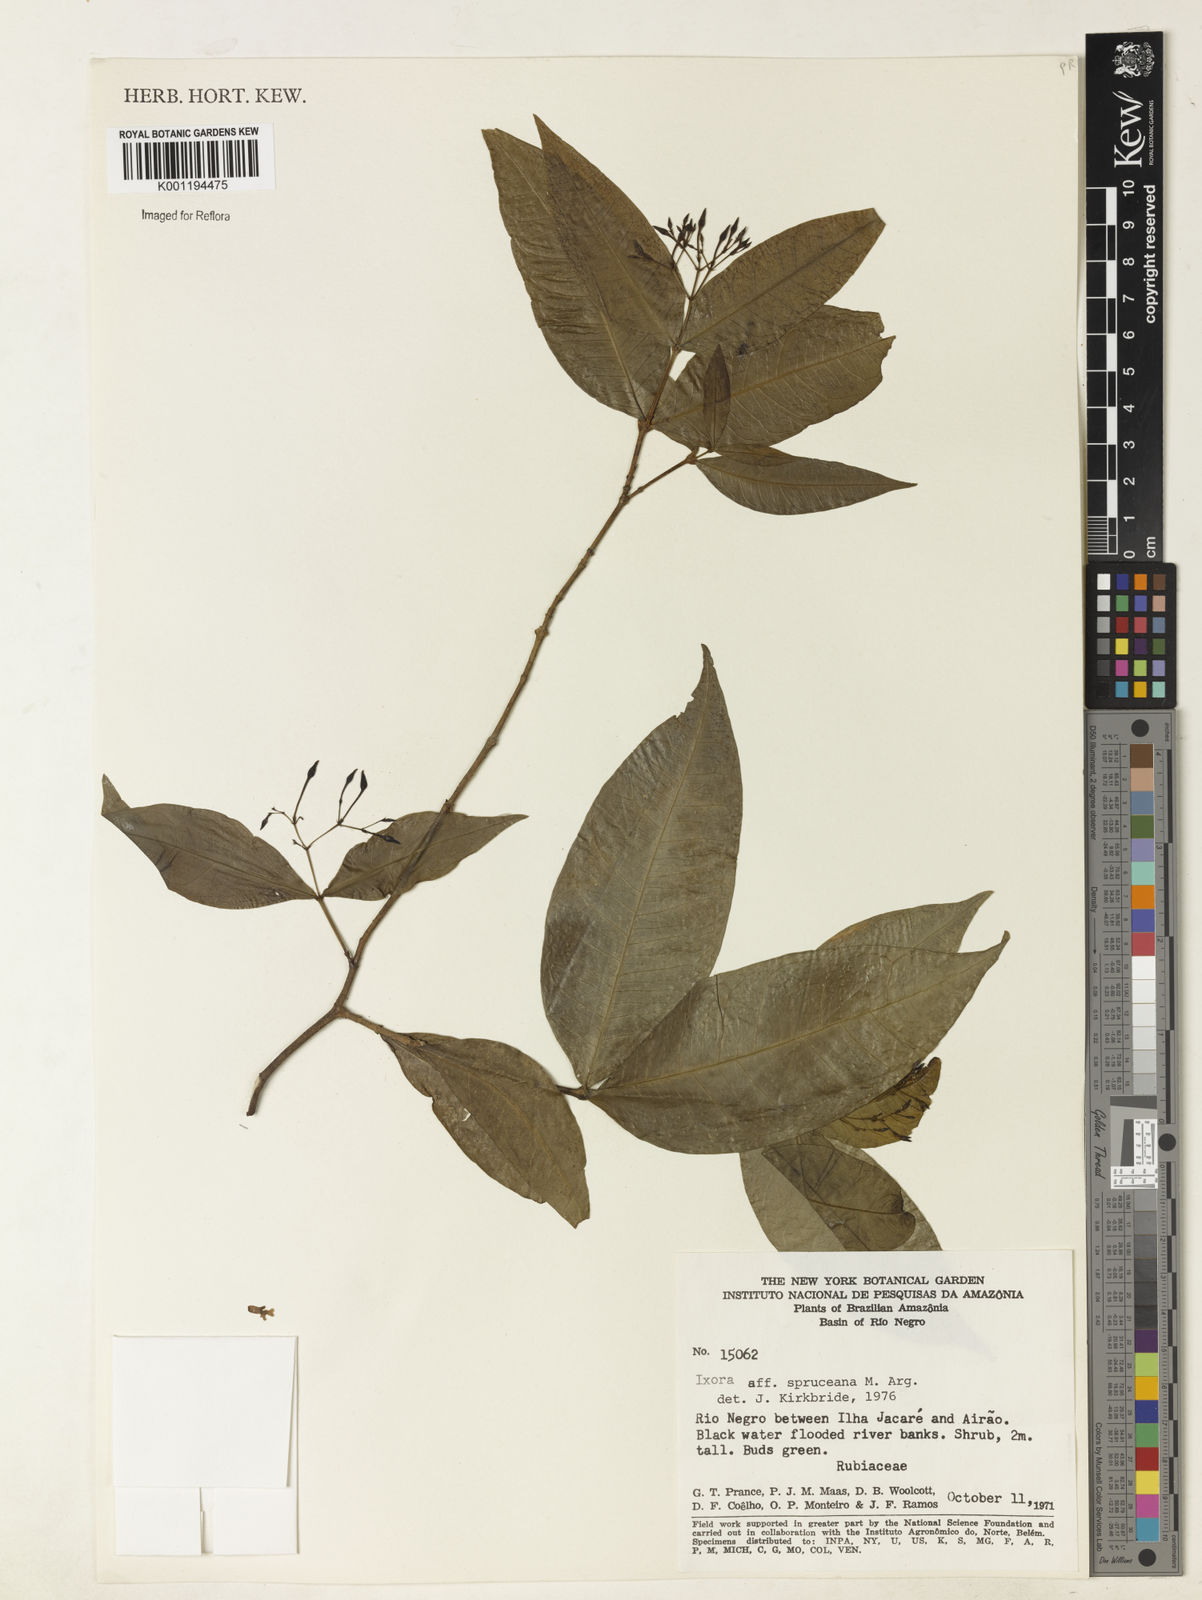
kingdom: Plantae
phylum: Tracheophyta
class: Magnoliopsida
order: Gentianales
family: Rubiaceae
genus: Ixora
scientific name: Ixora
